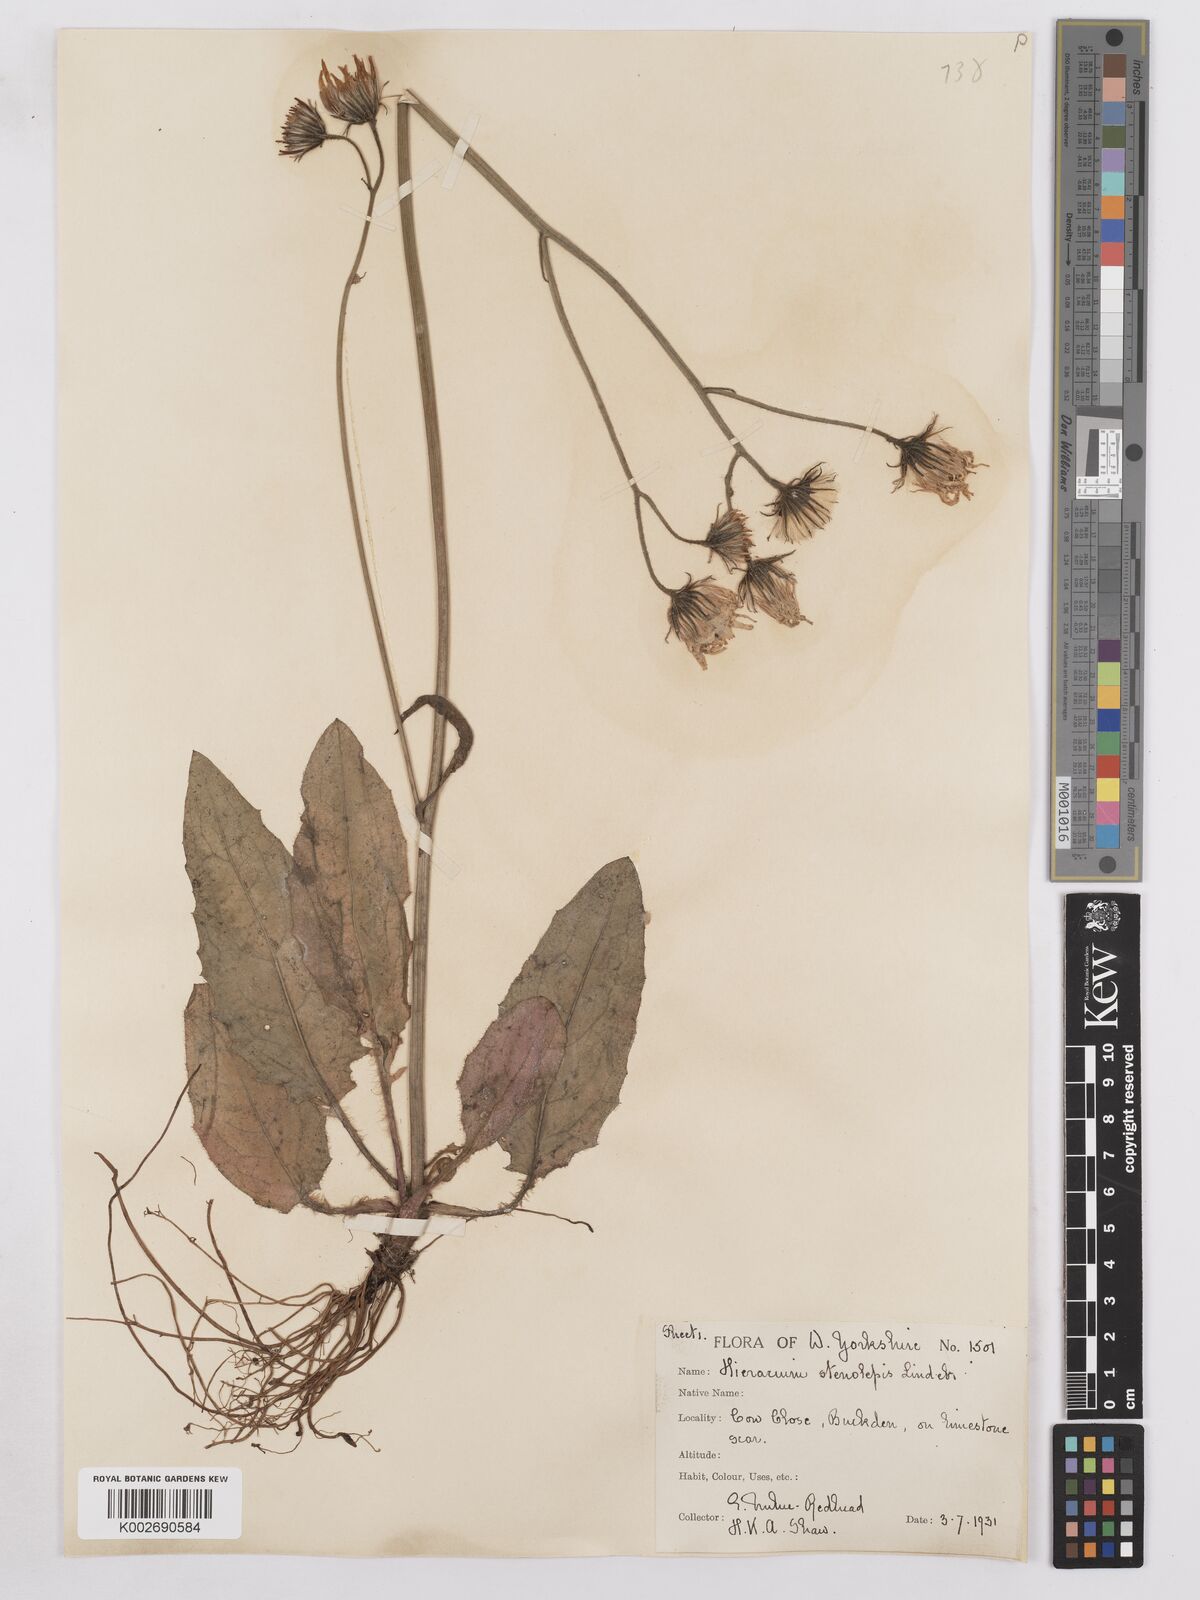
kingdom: Plantae
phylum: Tracheophyta
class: Magnoliopsida
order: Asterales
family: Asteraceae
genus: Hieracium
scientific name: Hieracium subbritannicum
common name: Limestone hawkweed
